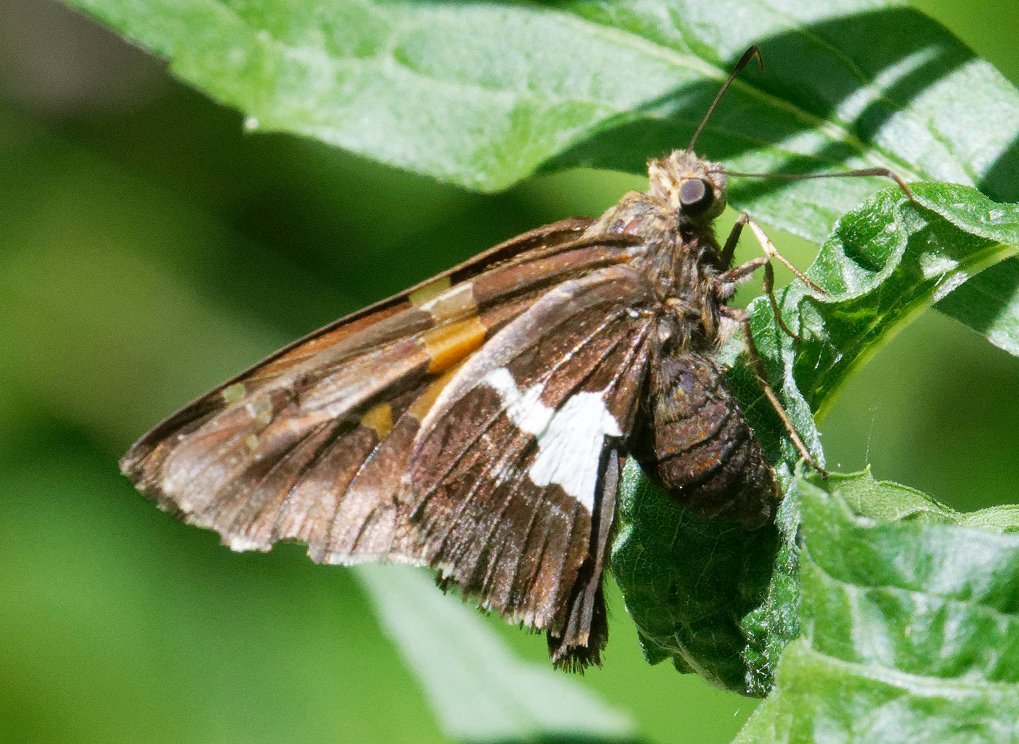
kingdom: Animalia
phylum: Arthropoda
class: Insecta
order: Lepidoptera
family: Hesperiidae
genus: Epargyreus
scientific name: Epargyreus clarus
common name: Silver-spotted Skipper
